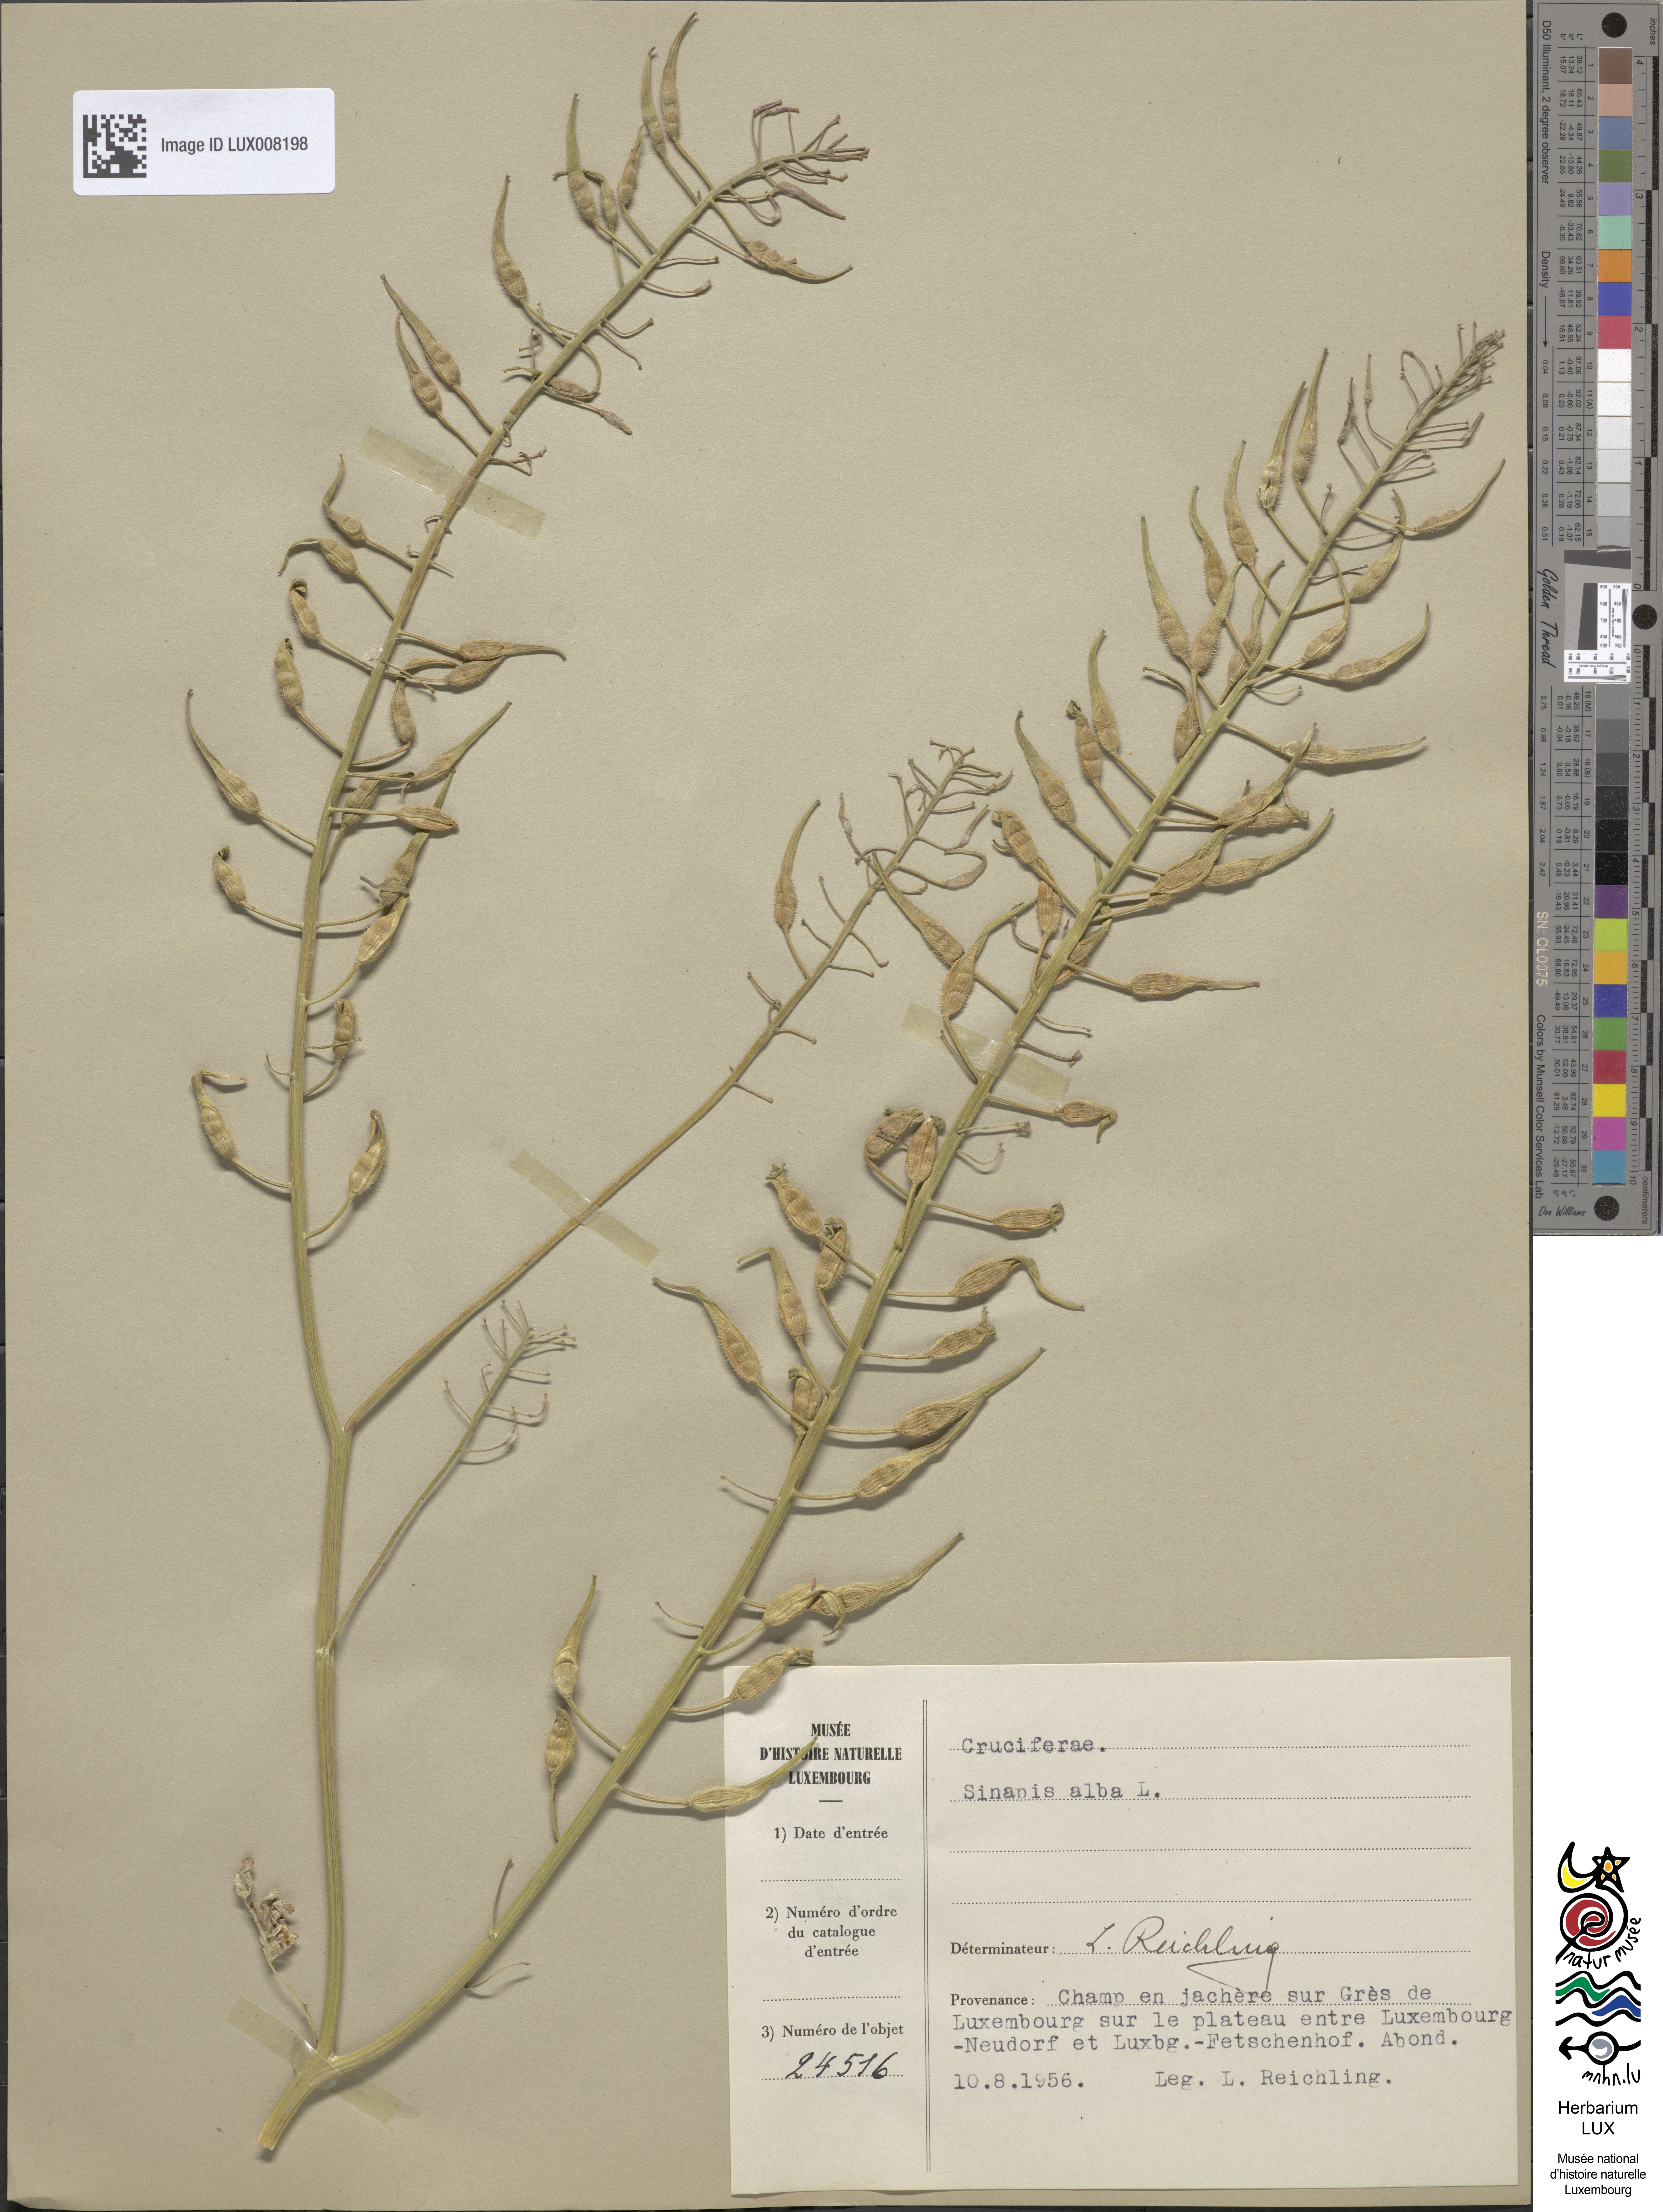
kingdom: Plantae
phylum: Tracheophyta
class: Magnoliopsida
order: Brassicales
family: Brassicaceae
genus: Sinapis
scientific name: Sinapis alba
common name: White mustard
